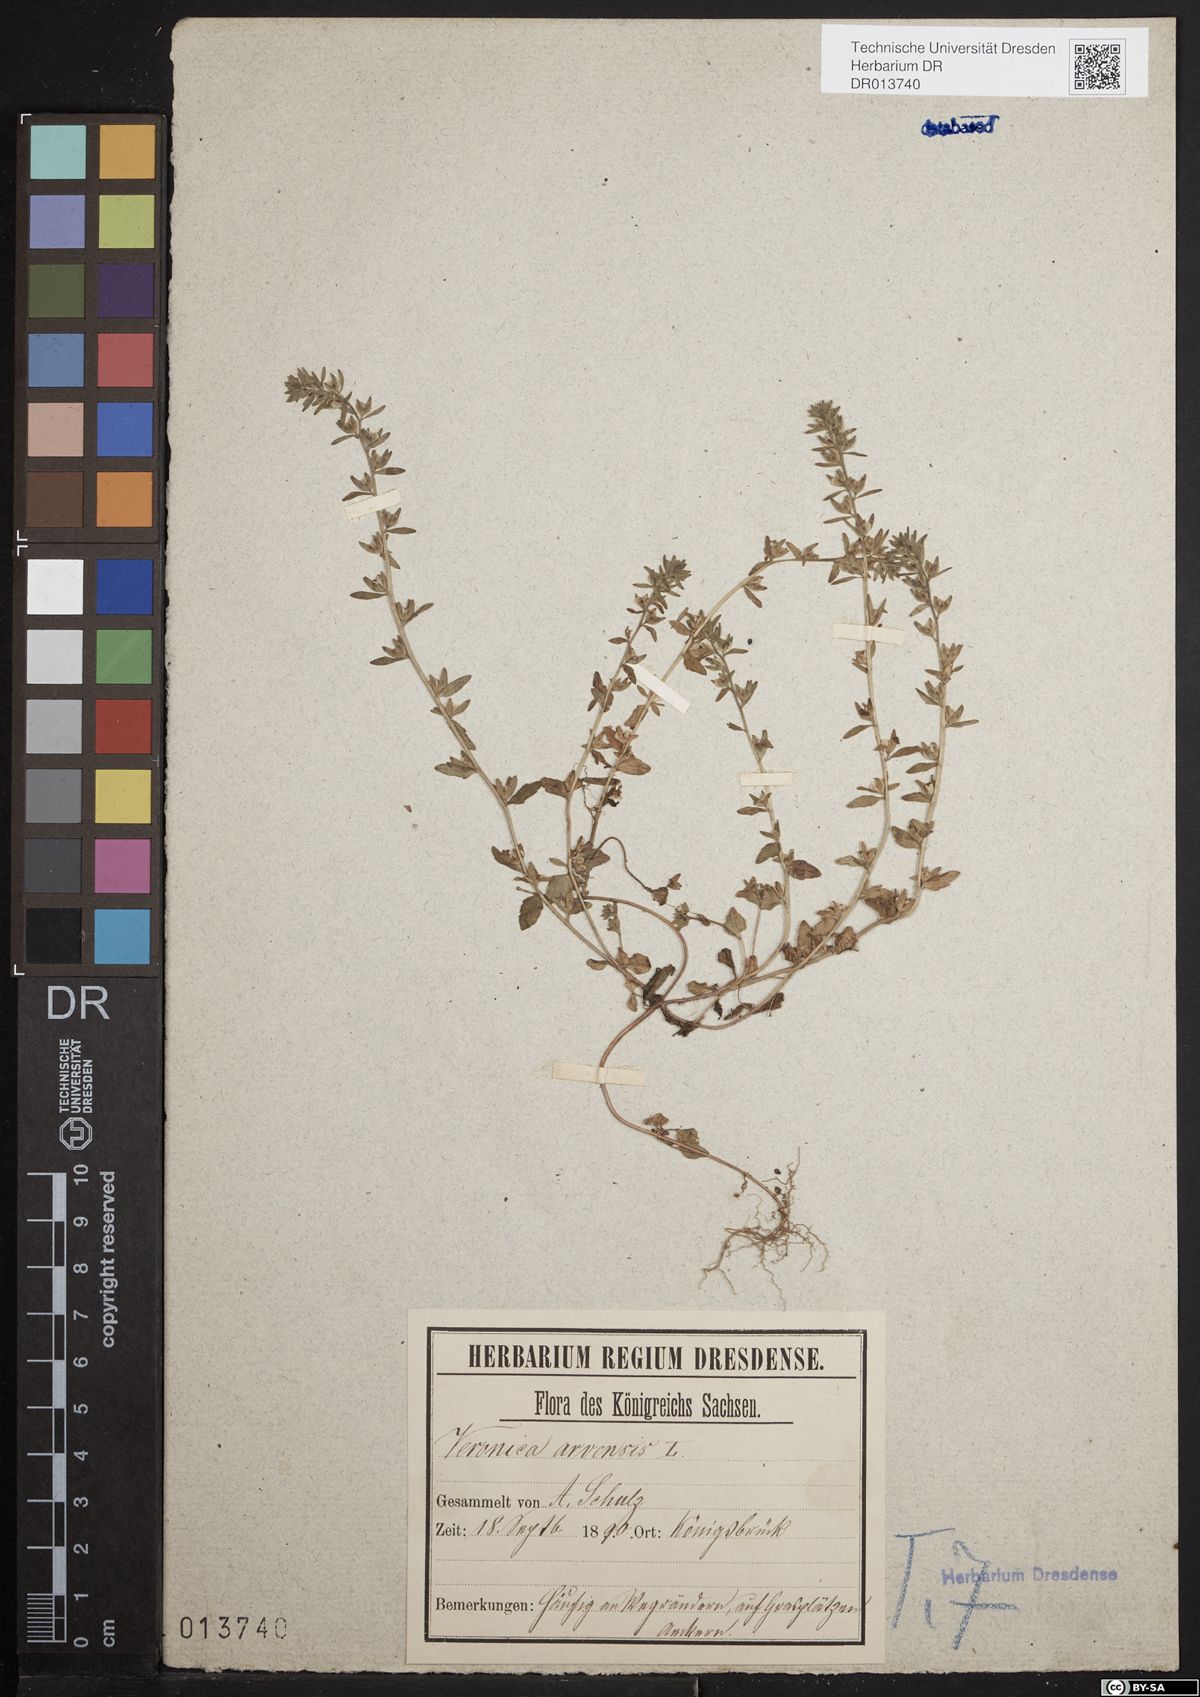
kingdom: Plantae
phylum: Tracheophyta
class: Magnoliopsida
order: Lamiales
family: Plantaginaceae
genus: Veronica
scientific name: Veronica arvensis
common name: Corn speedwell
